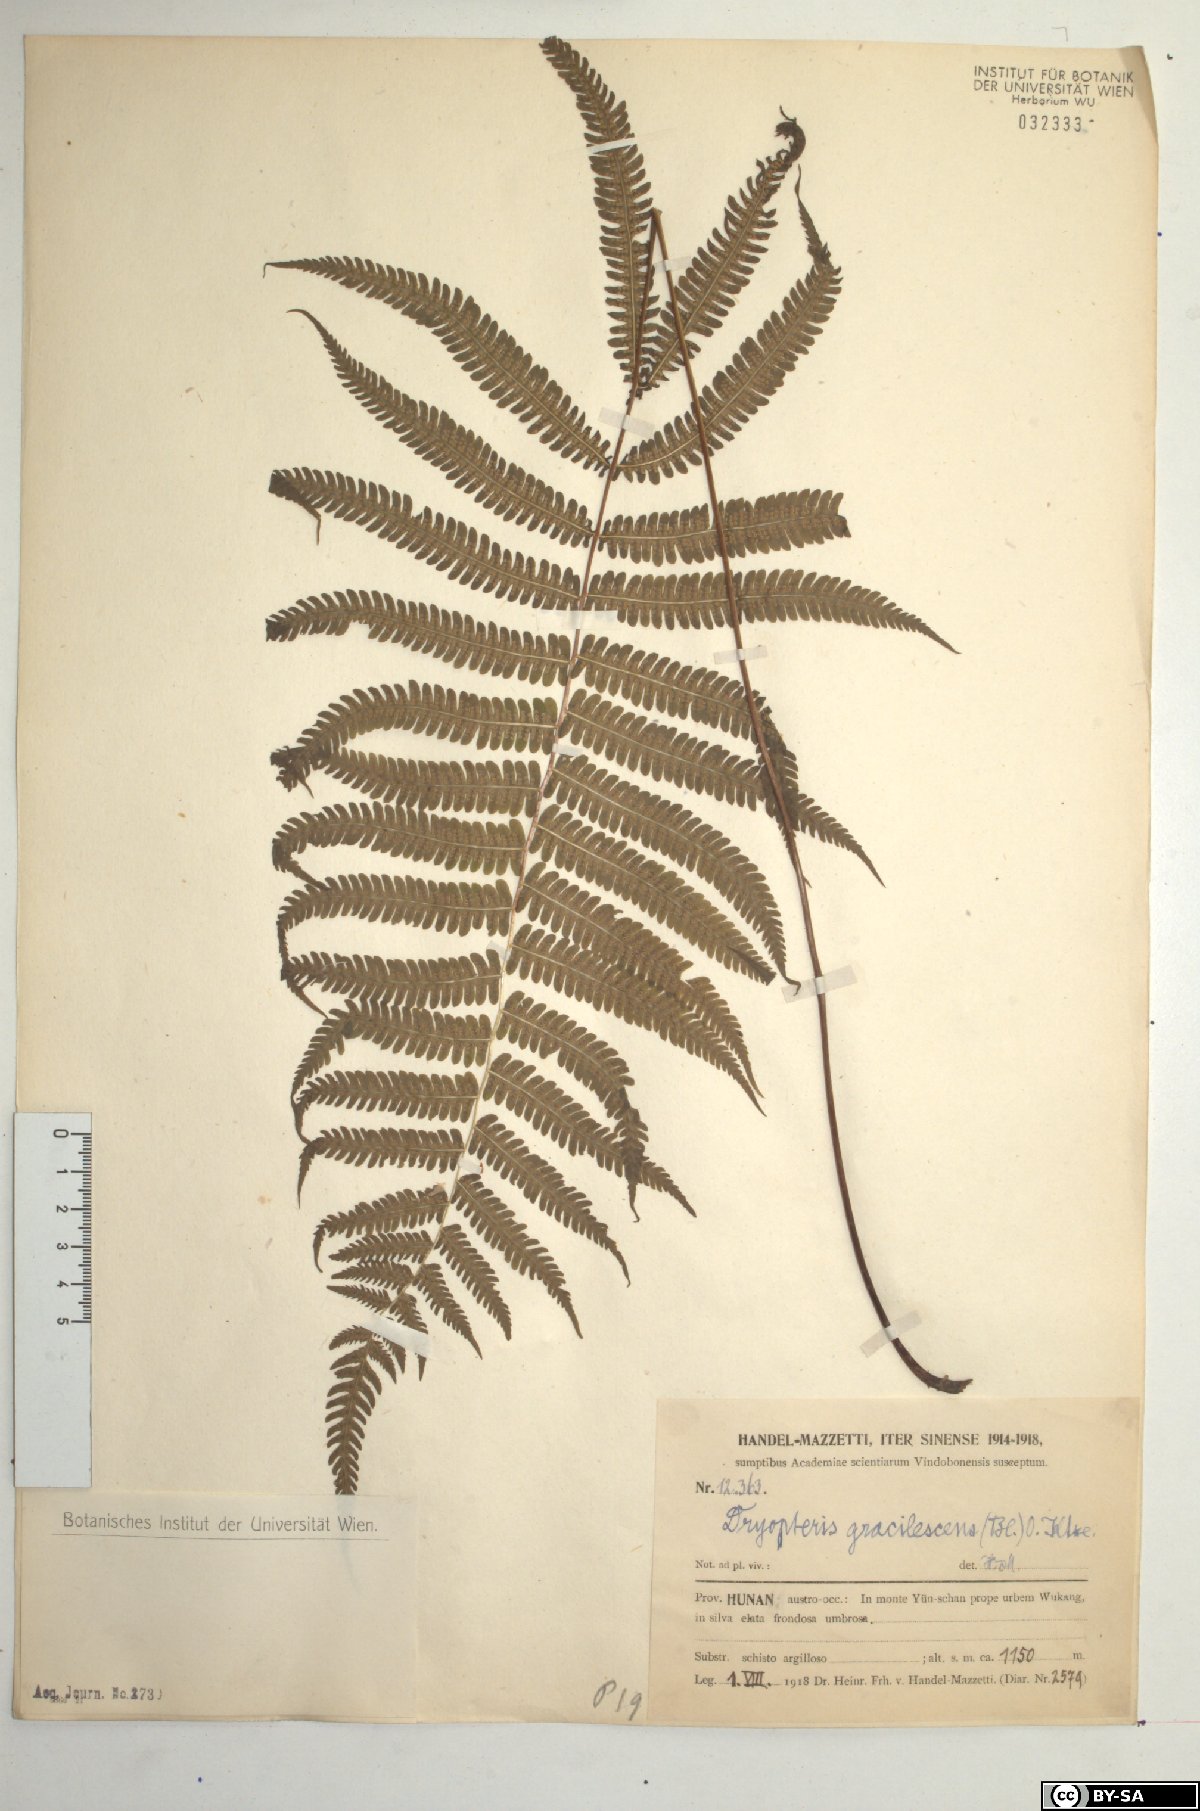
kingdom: Plantae
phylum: Tracheophyta
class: Polypodiopsida
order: Polypodiales
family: Thelypteridaceae
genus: Metathelypteris
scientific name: Metathelypteris gracilescens
